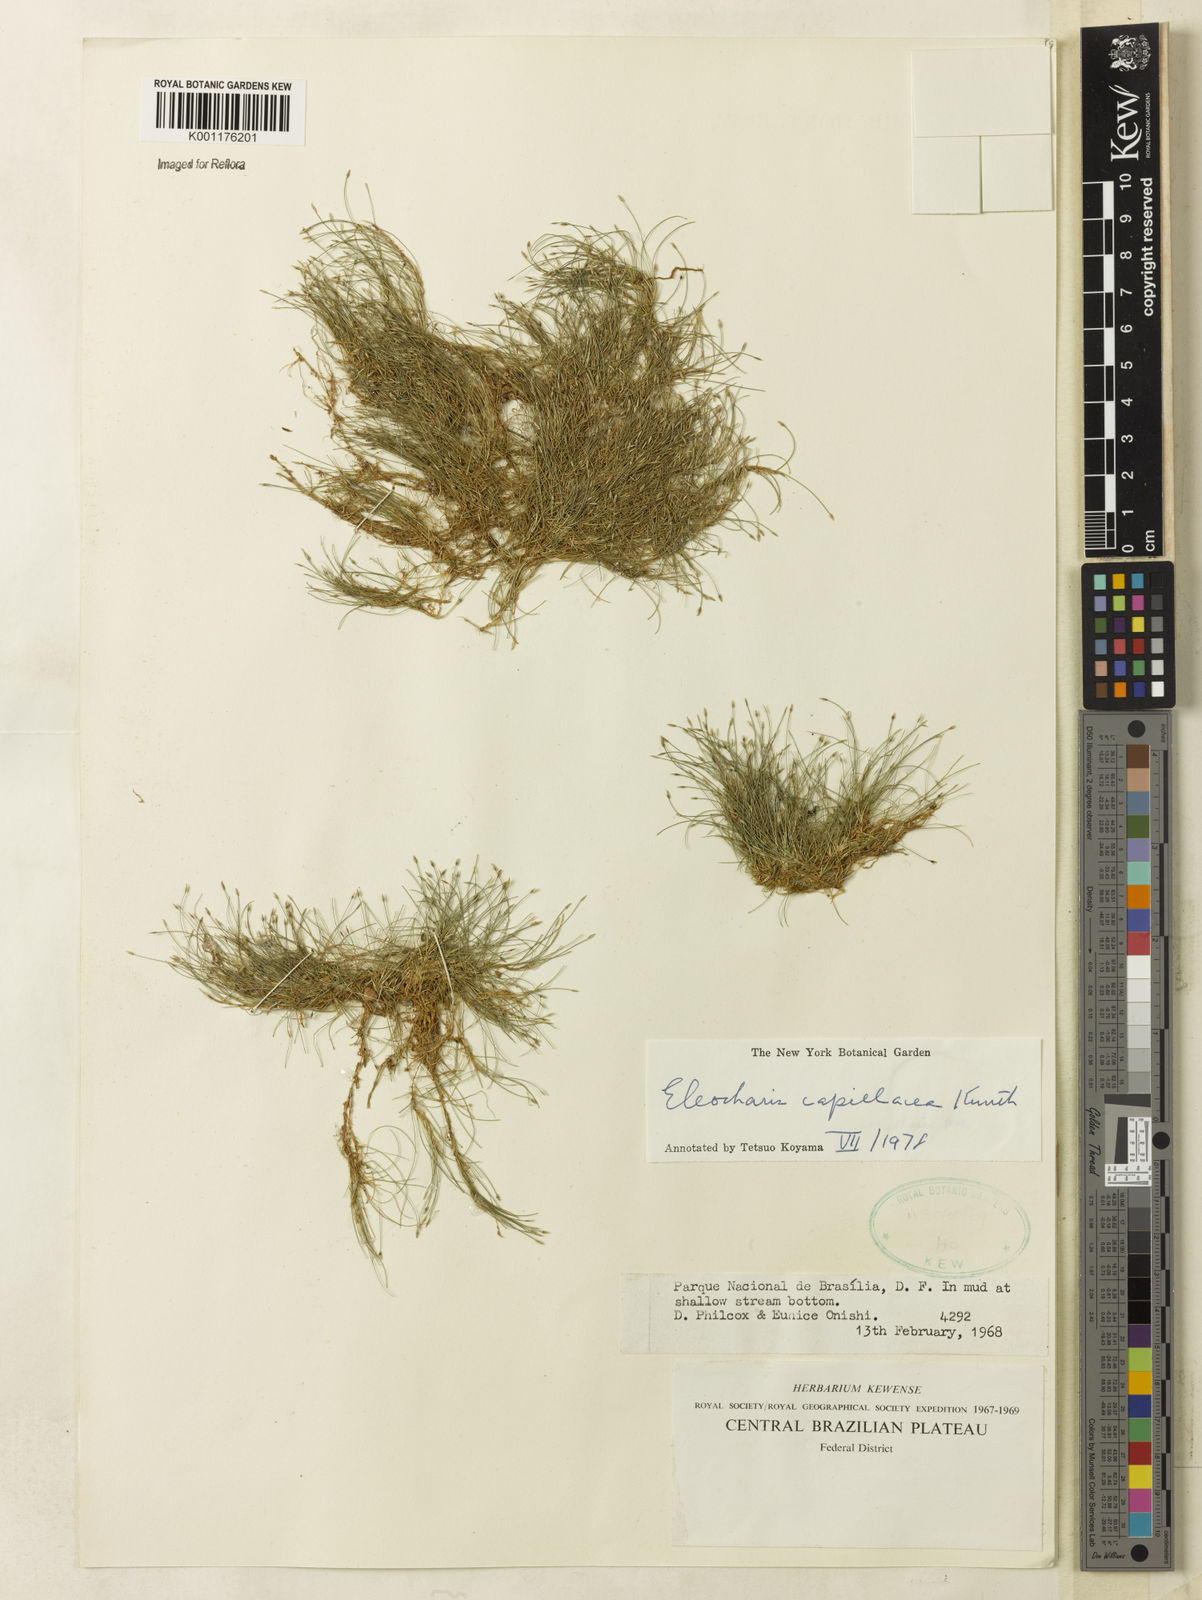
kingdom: Plantae
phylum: Tracheophyta
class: Liliopsida
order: Poales
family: Cyperaceae
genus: Eleocharis
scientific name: Eleocharis capillacea
